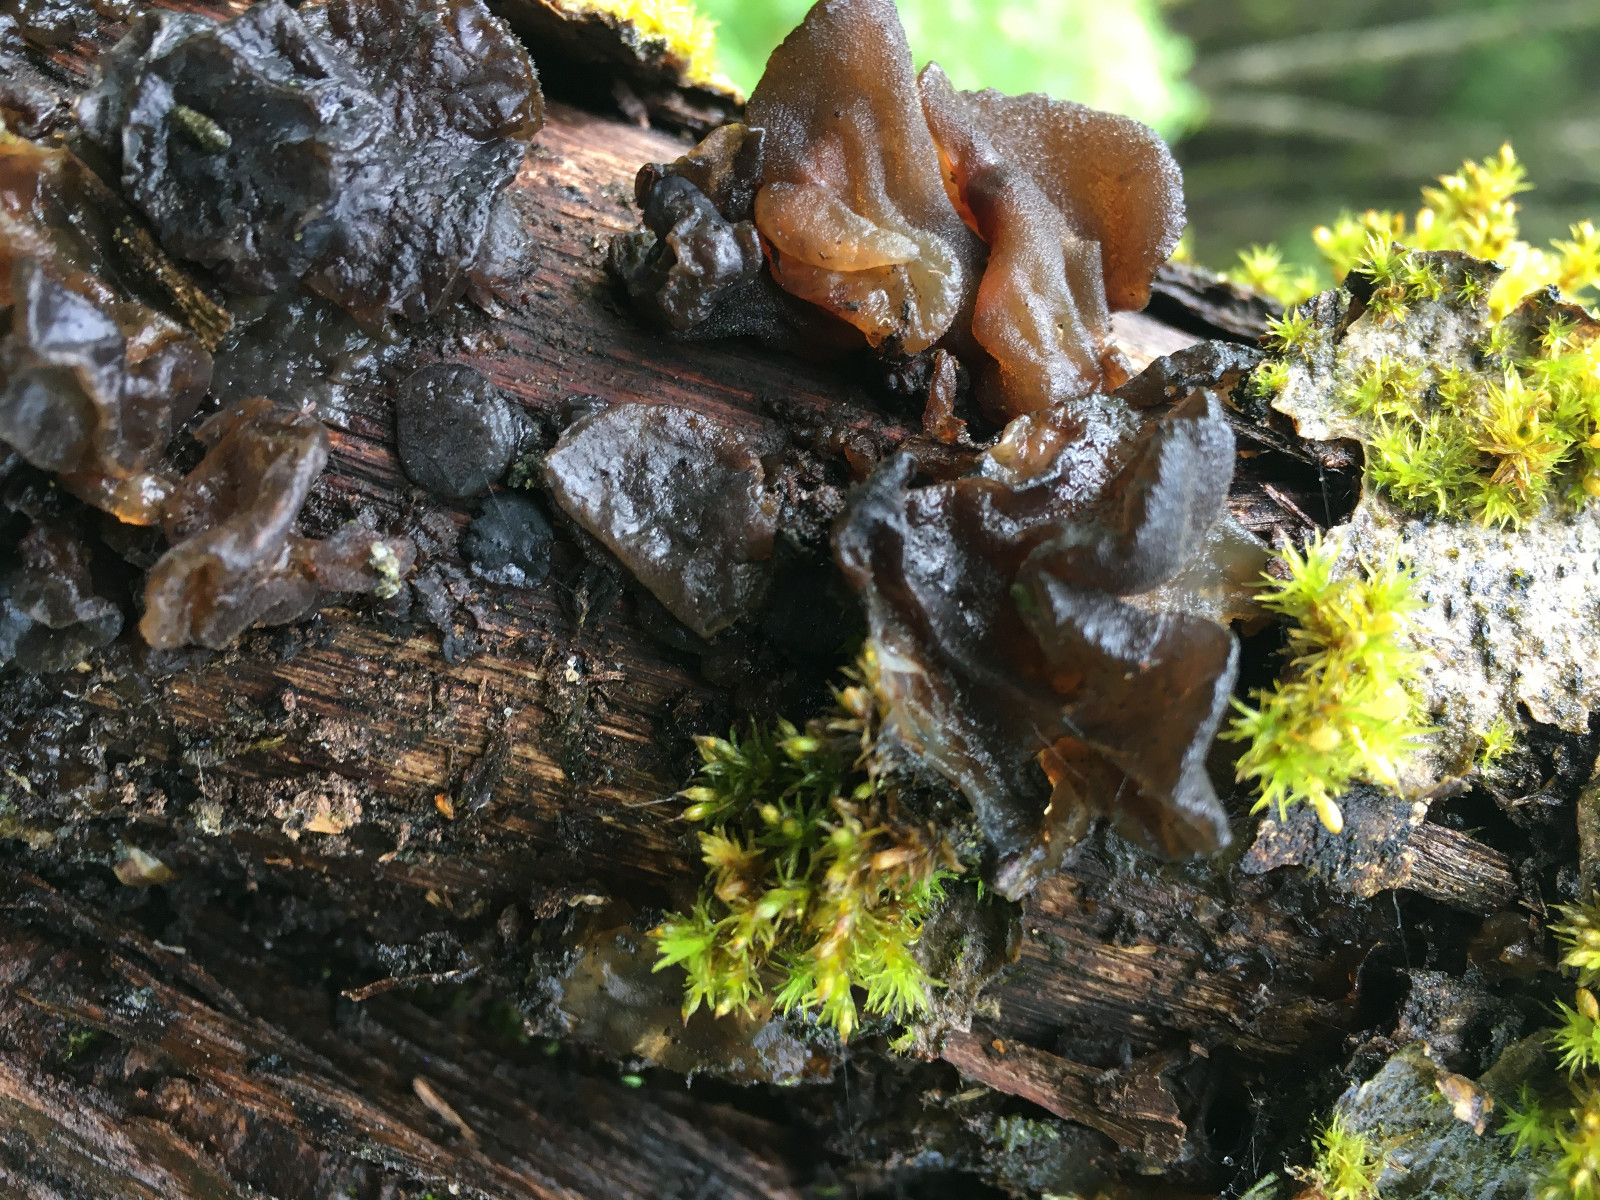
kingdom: Fungi
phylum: Basidiomycota
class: Agaricomycetes
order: Auriculariales
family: Auriculariaceae
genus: Exidia
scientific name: Exidia glandulosa
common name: ege-bævretop
